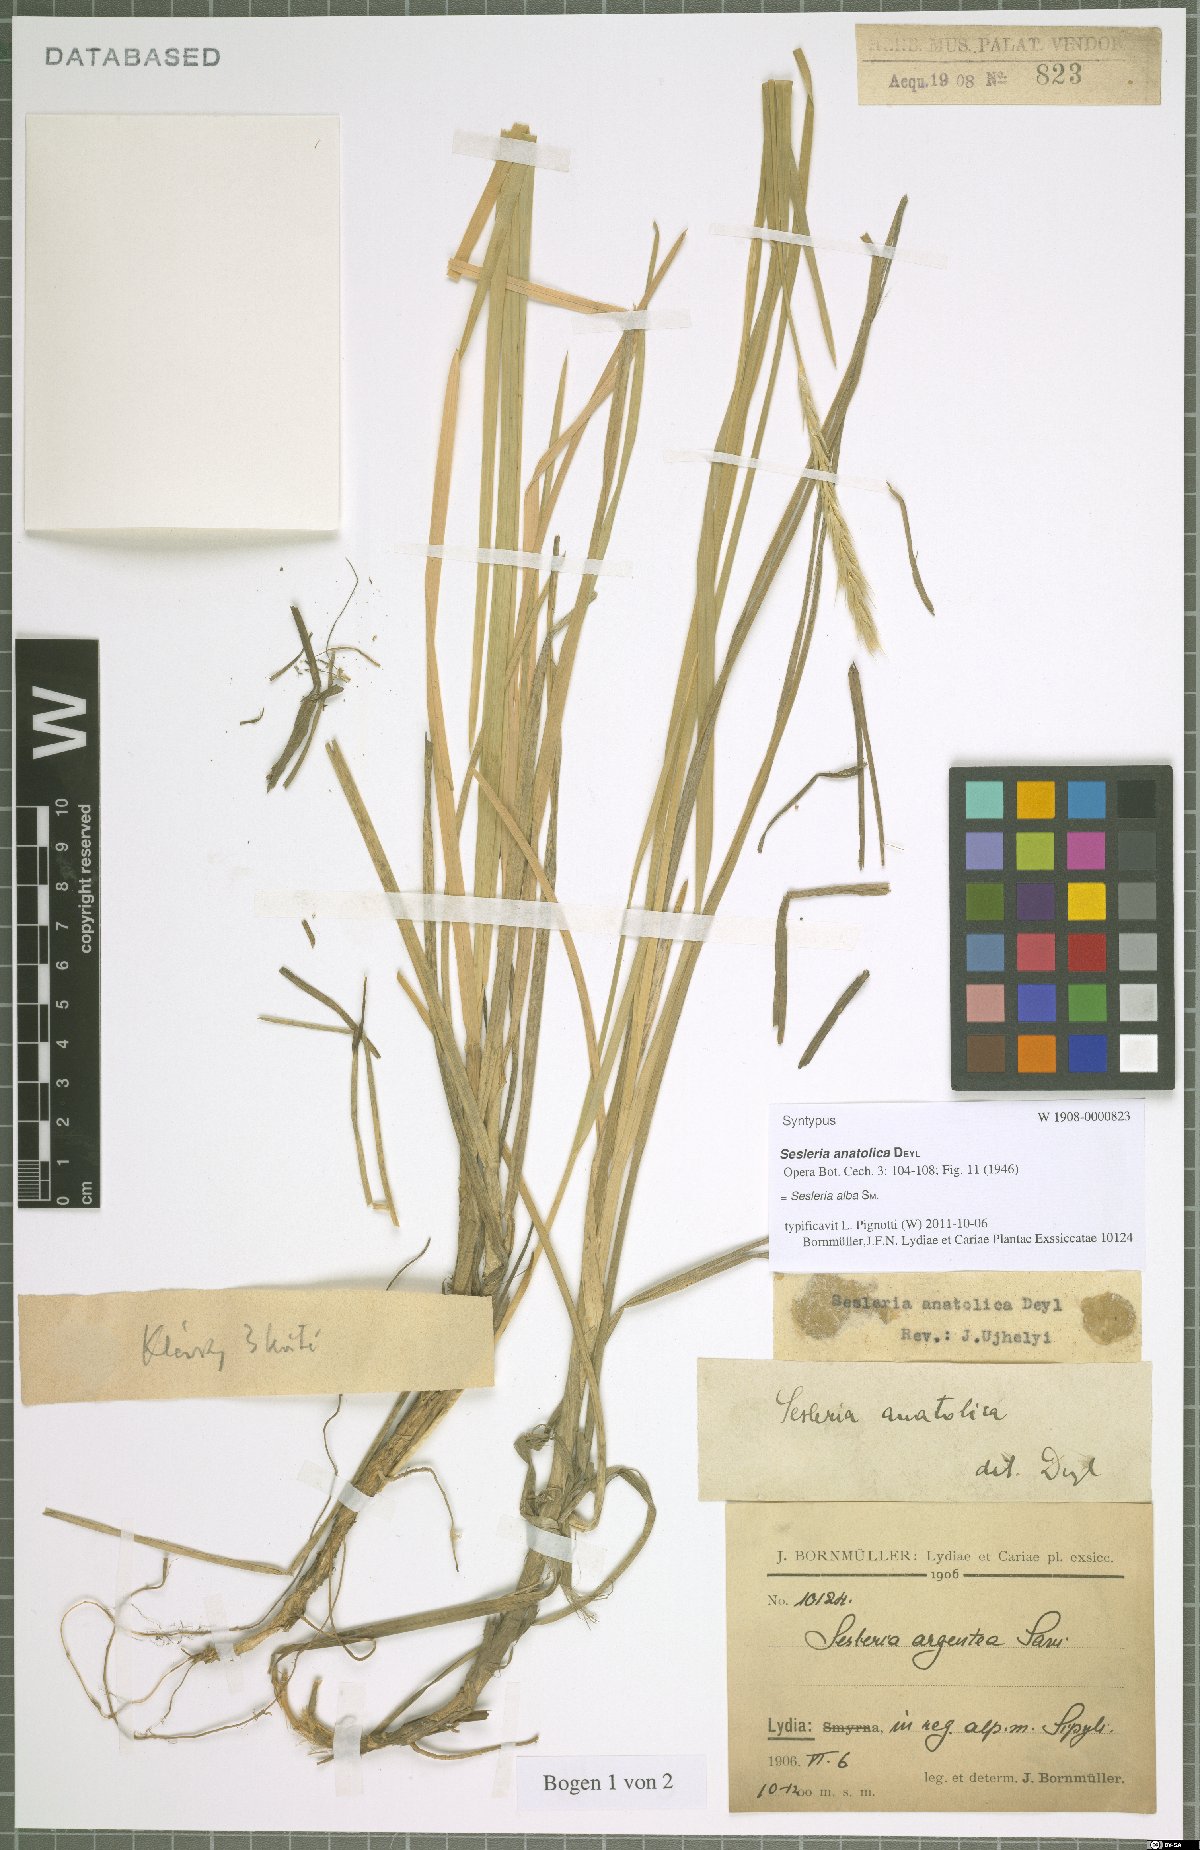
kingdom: Plantae
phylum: Tracheophyta
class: Liliopsida
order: Poales
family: Poaceae
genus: Sesleria
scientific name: Sesleria alba
